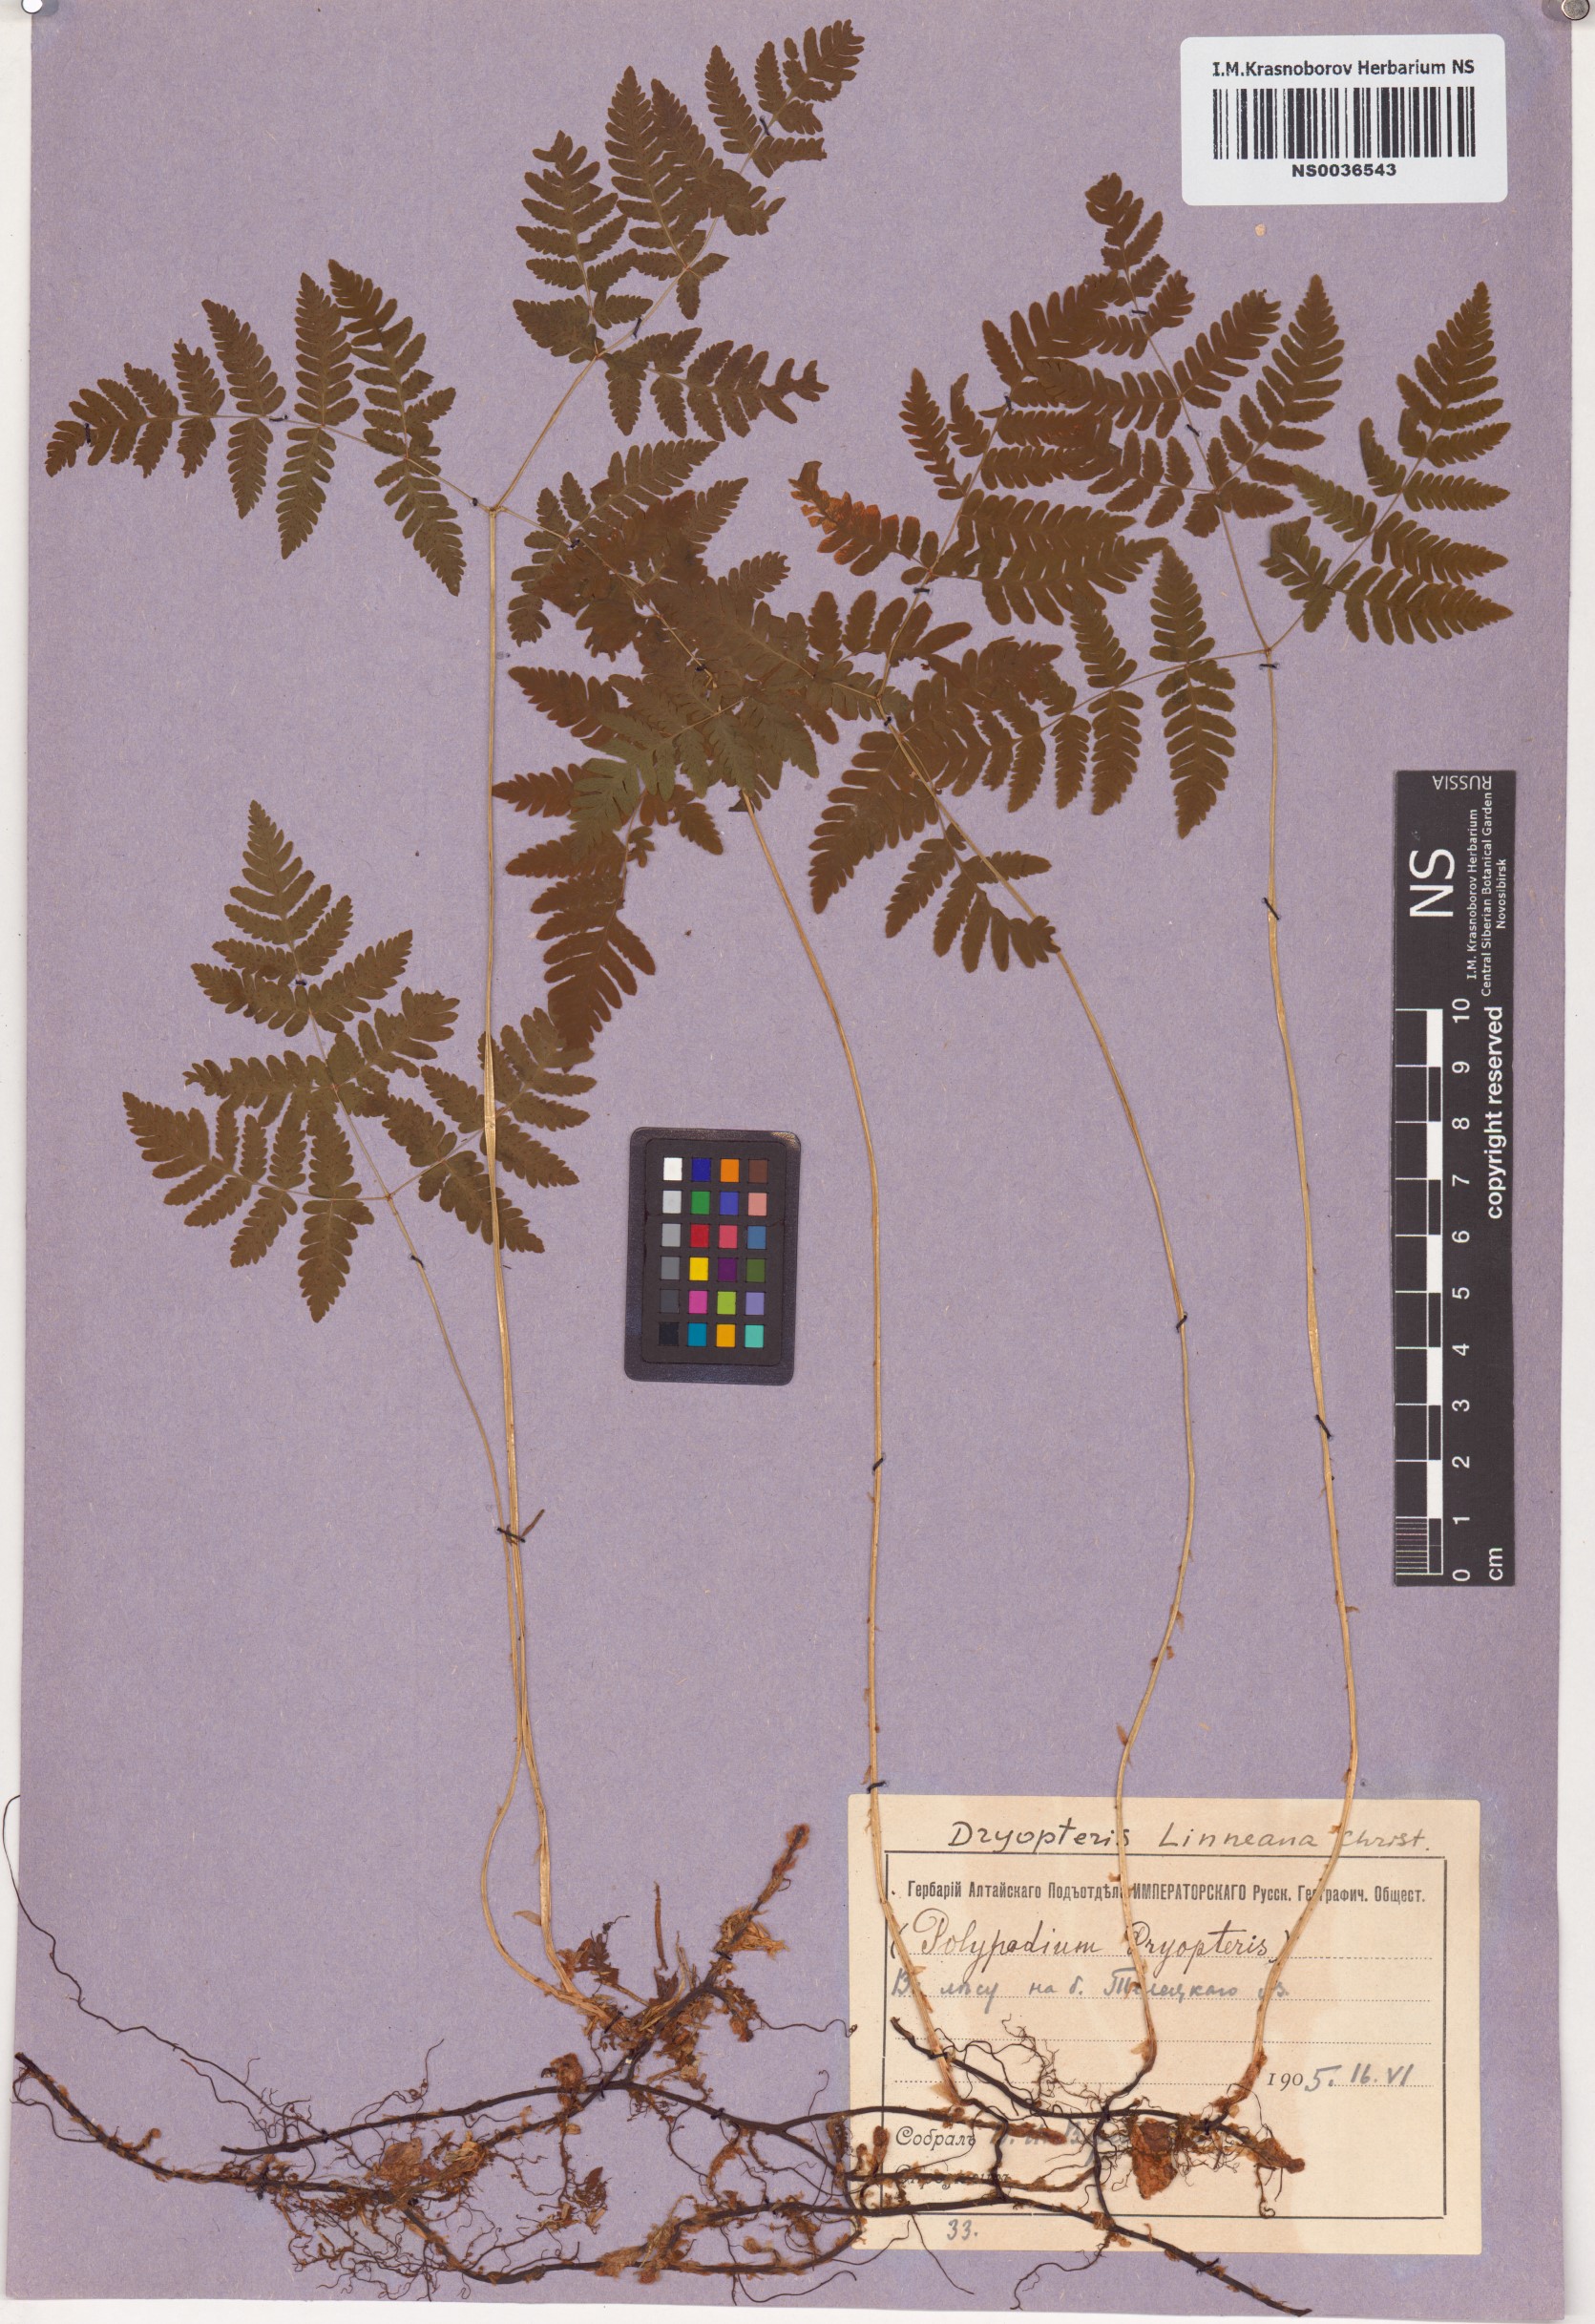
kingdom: Plantae
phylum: Tracheophyta
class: Polypodiopsida
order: Polypodiales
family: Cystopteridaceae
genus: Gymnocarpium
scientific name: Gymnocarpium dryopteris
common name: Oak fern
